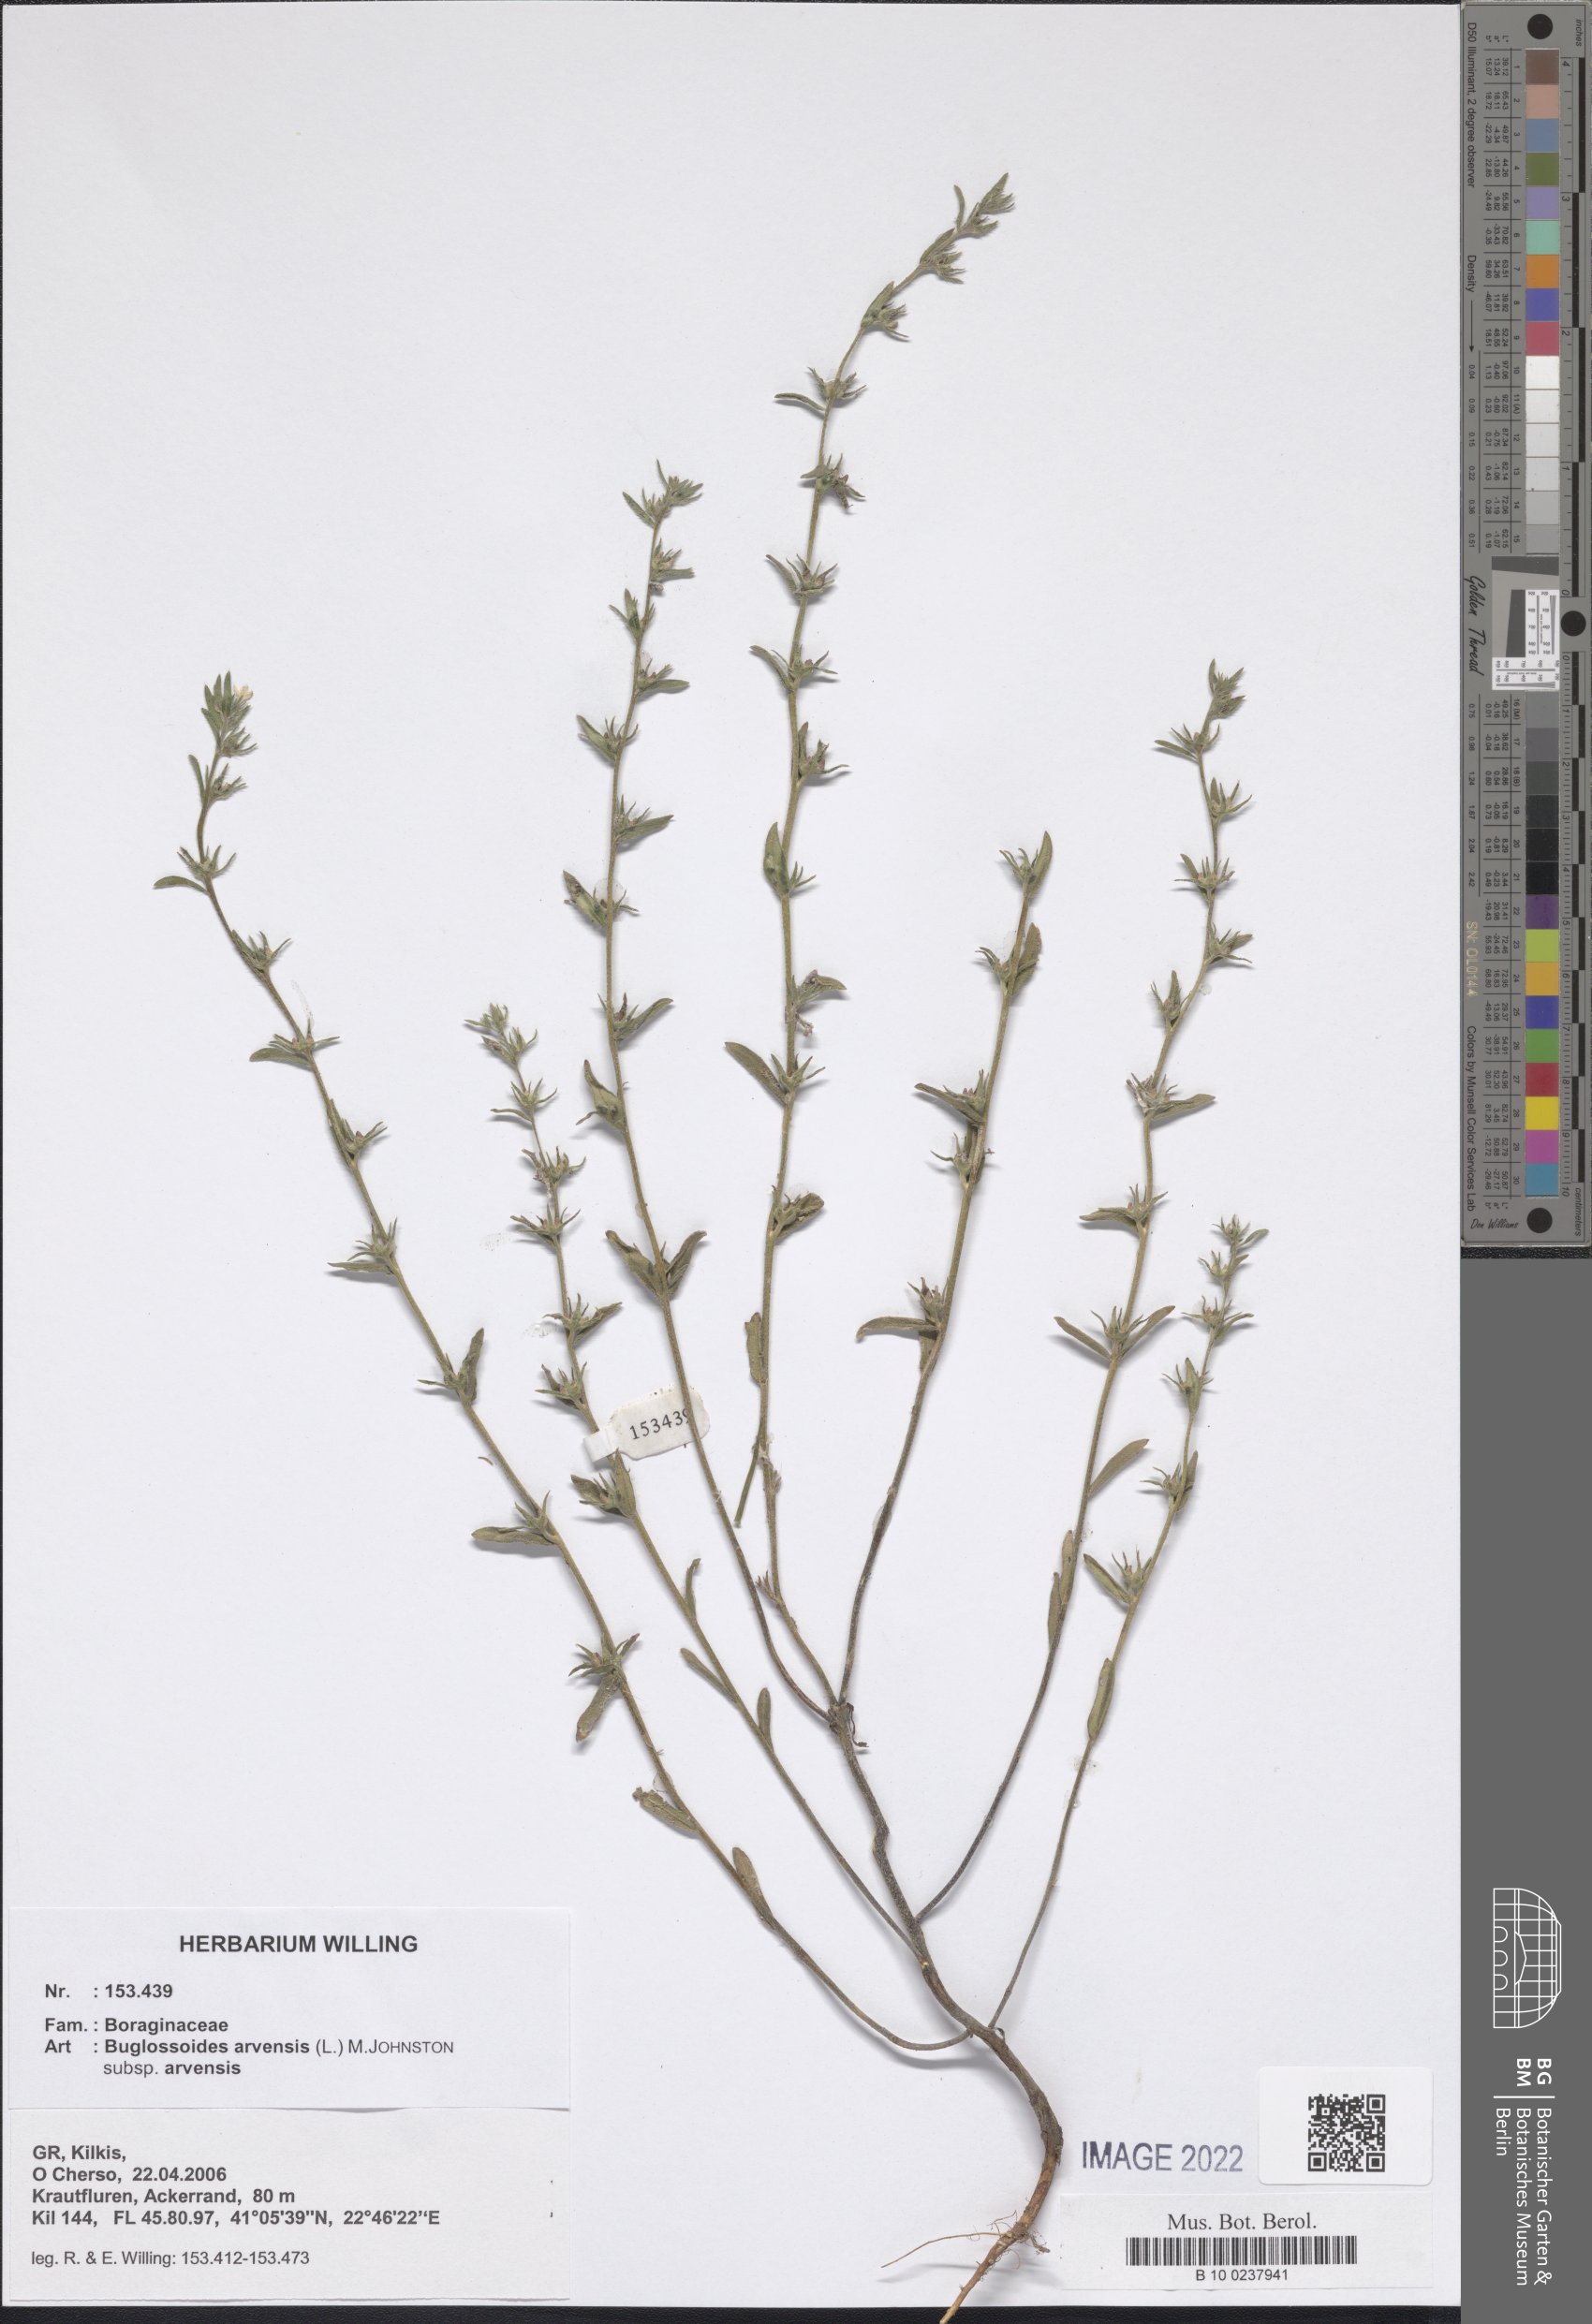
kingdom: Plantae
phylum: Tracheophyta
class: Magnoliopsida
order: Boraginales
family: Boraginaceae
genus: Buglossoides
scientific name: Buglossoides arvensis
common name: Corn gromwell
